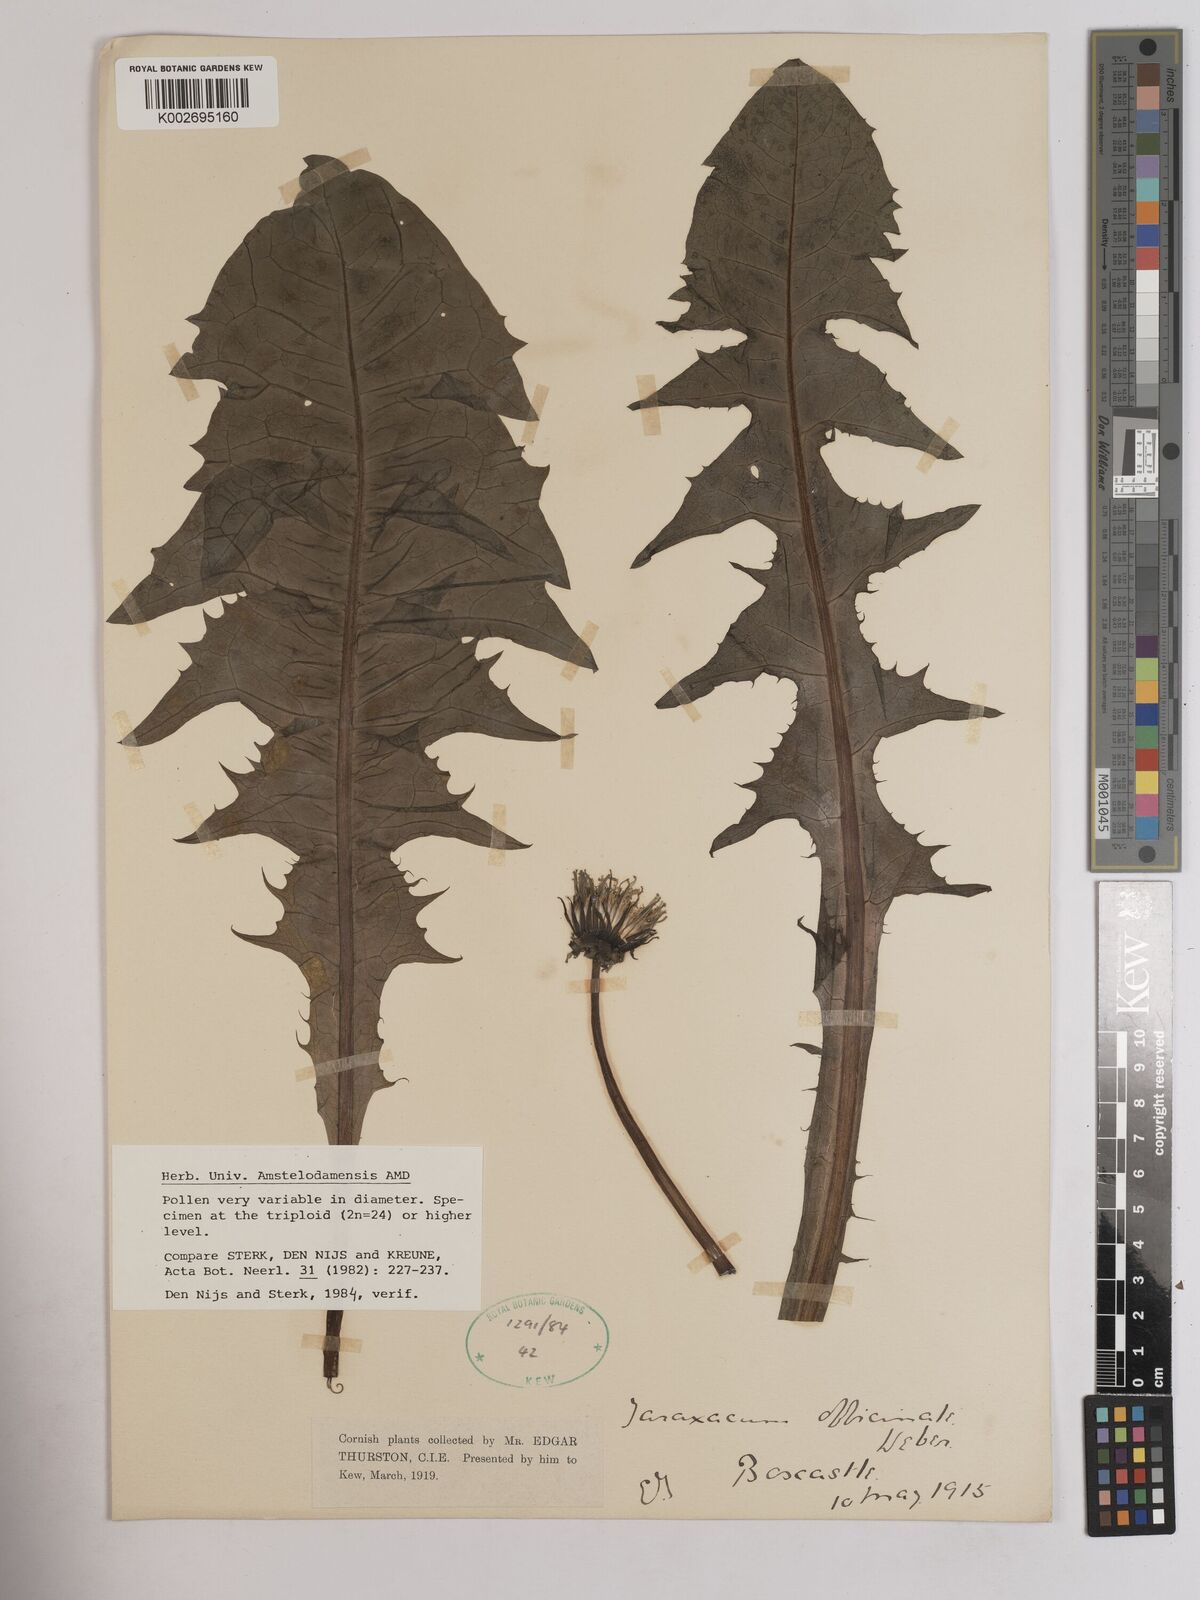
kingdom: Plantae
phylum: Tracheophyta
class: Magnoliopsida
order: Asterales
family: Asteraceae
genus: Taraxacum
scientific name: Taraxacum officinale
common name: Common dandelion
